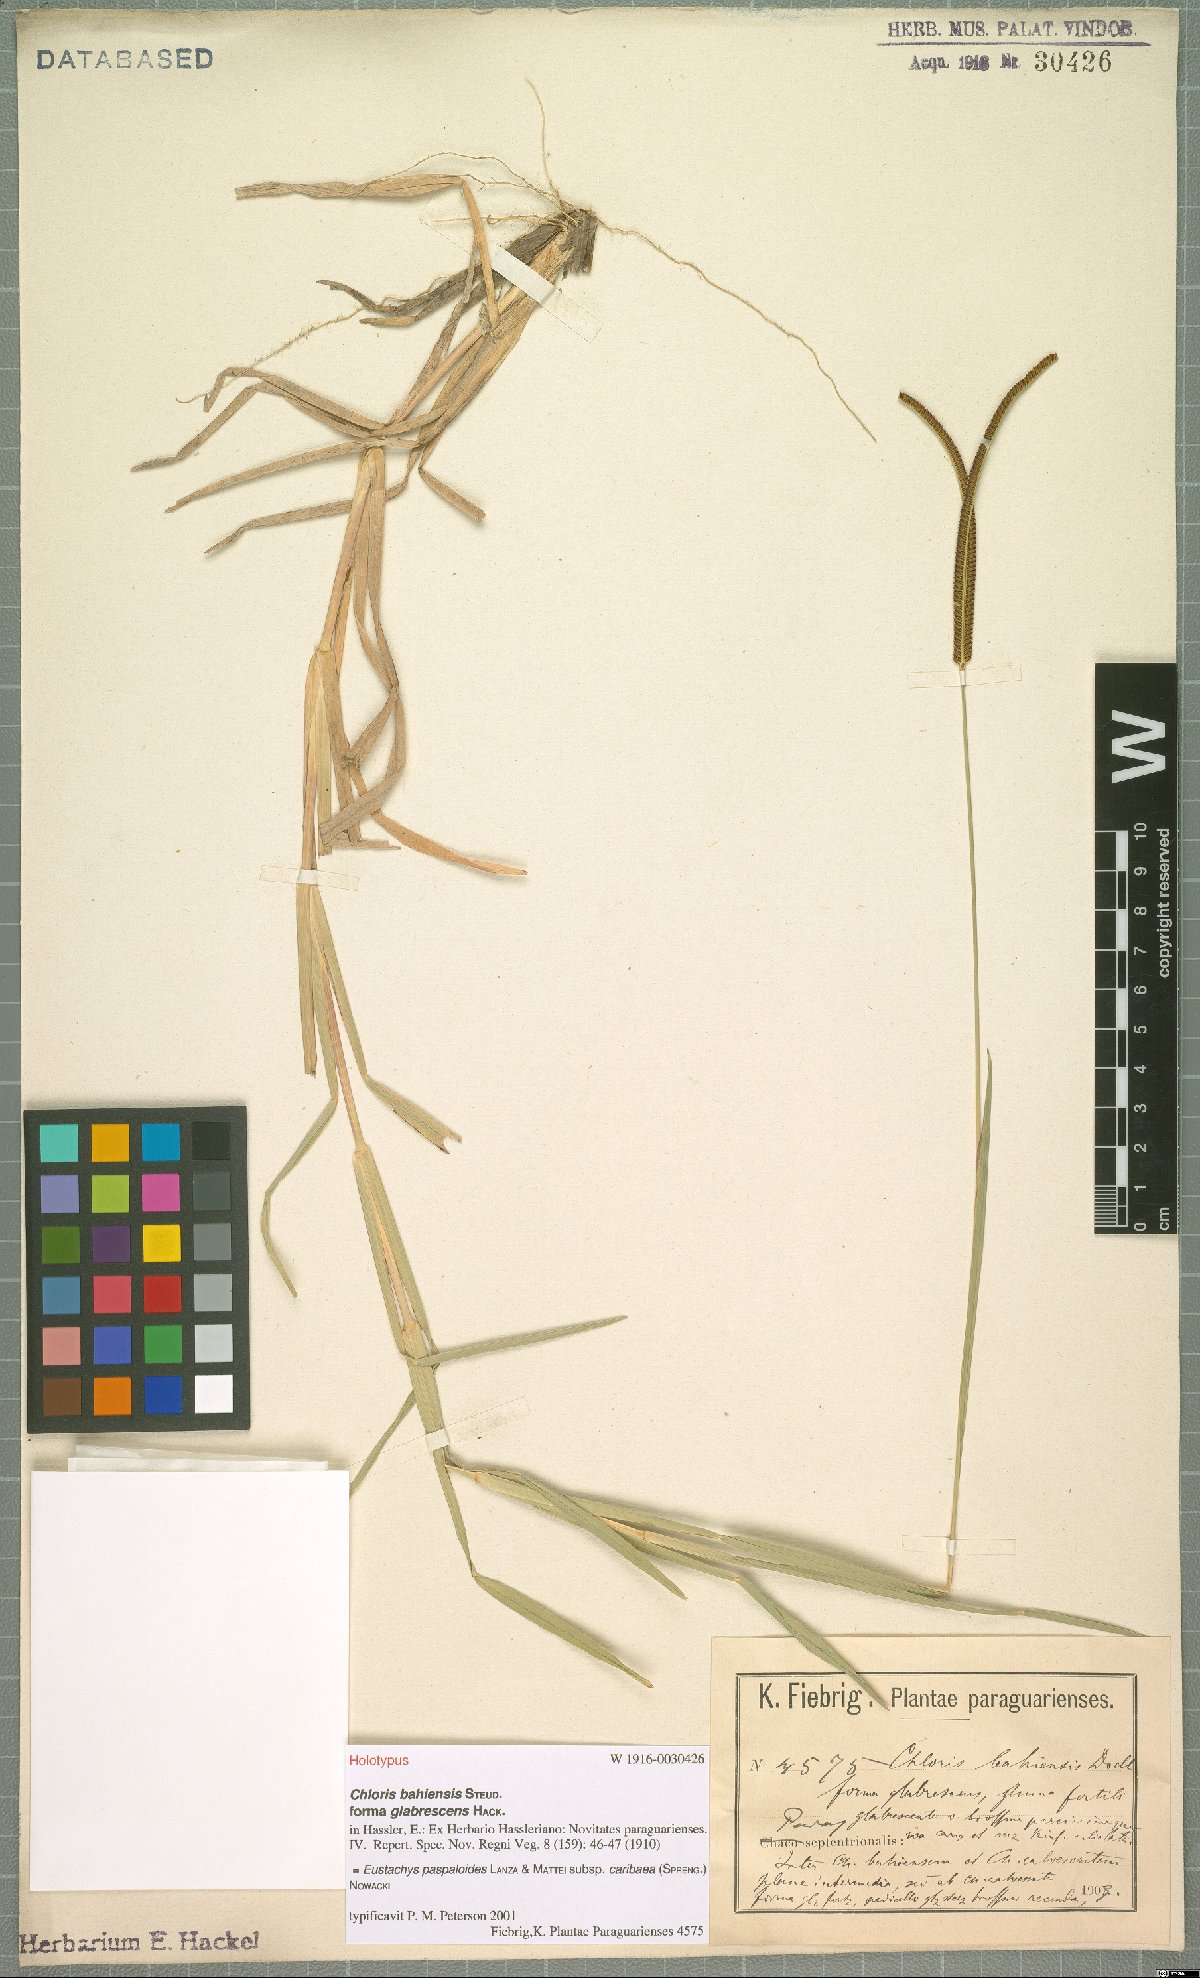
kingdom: Plantae
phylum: Tracheophyta
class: Liliopsida
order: Poales
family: Poaceae
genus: Eustachys
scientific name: Eustachys caribaea
